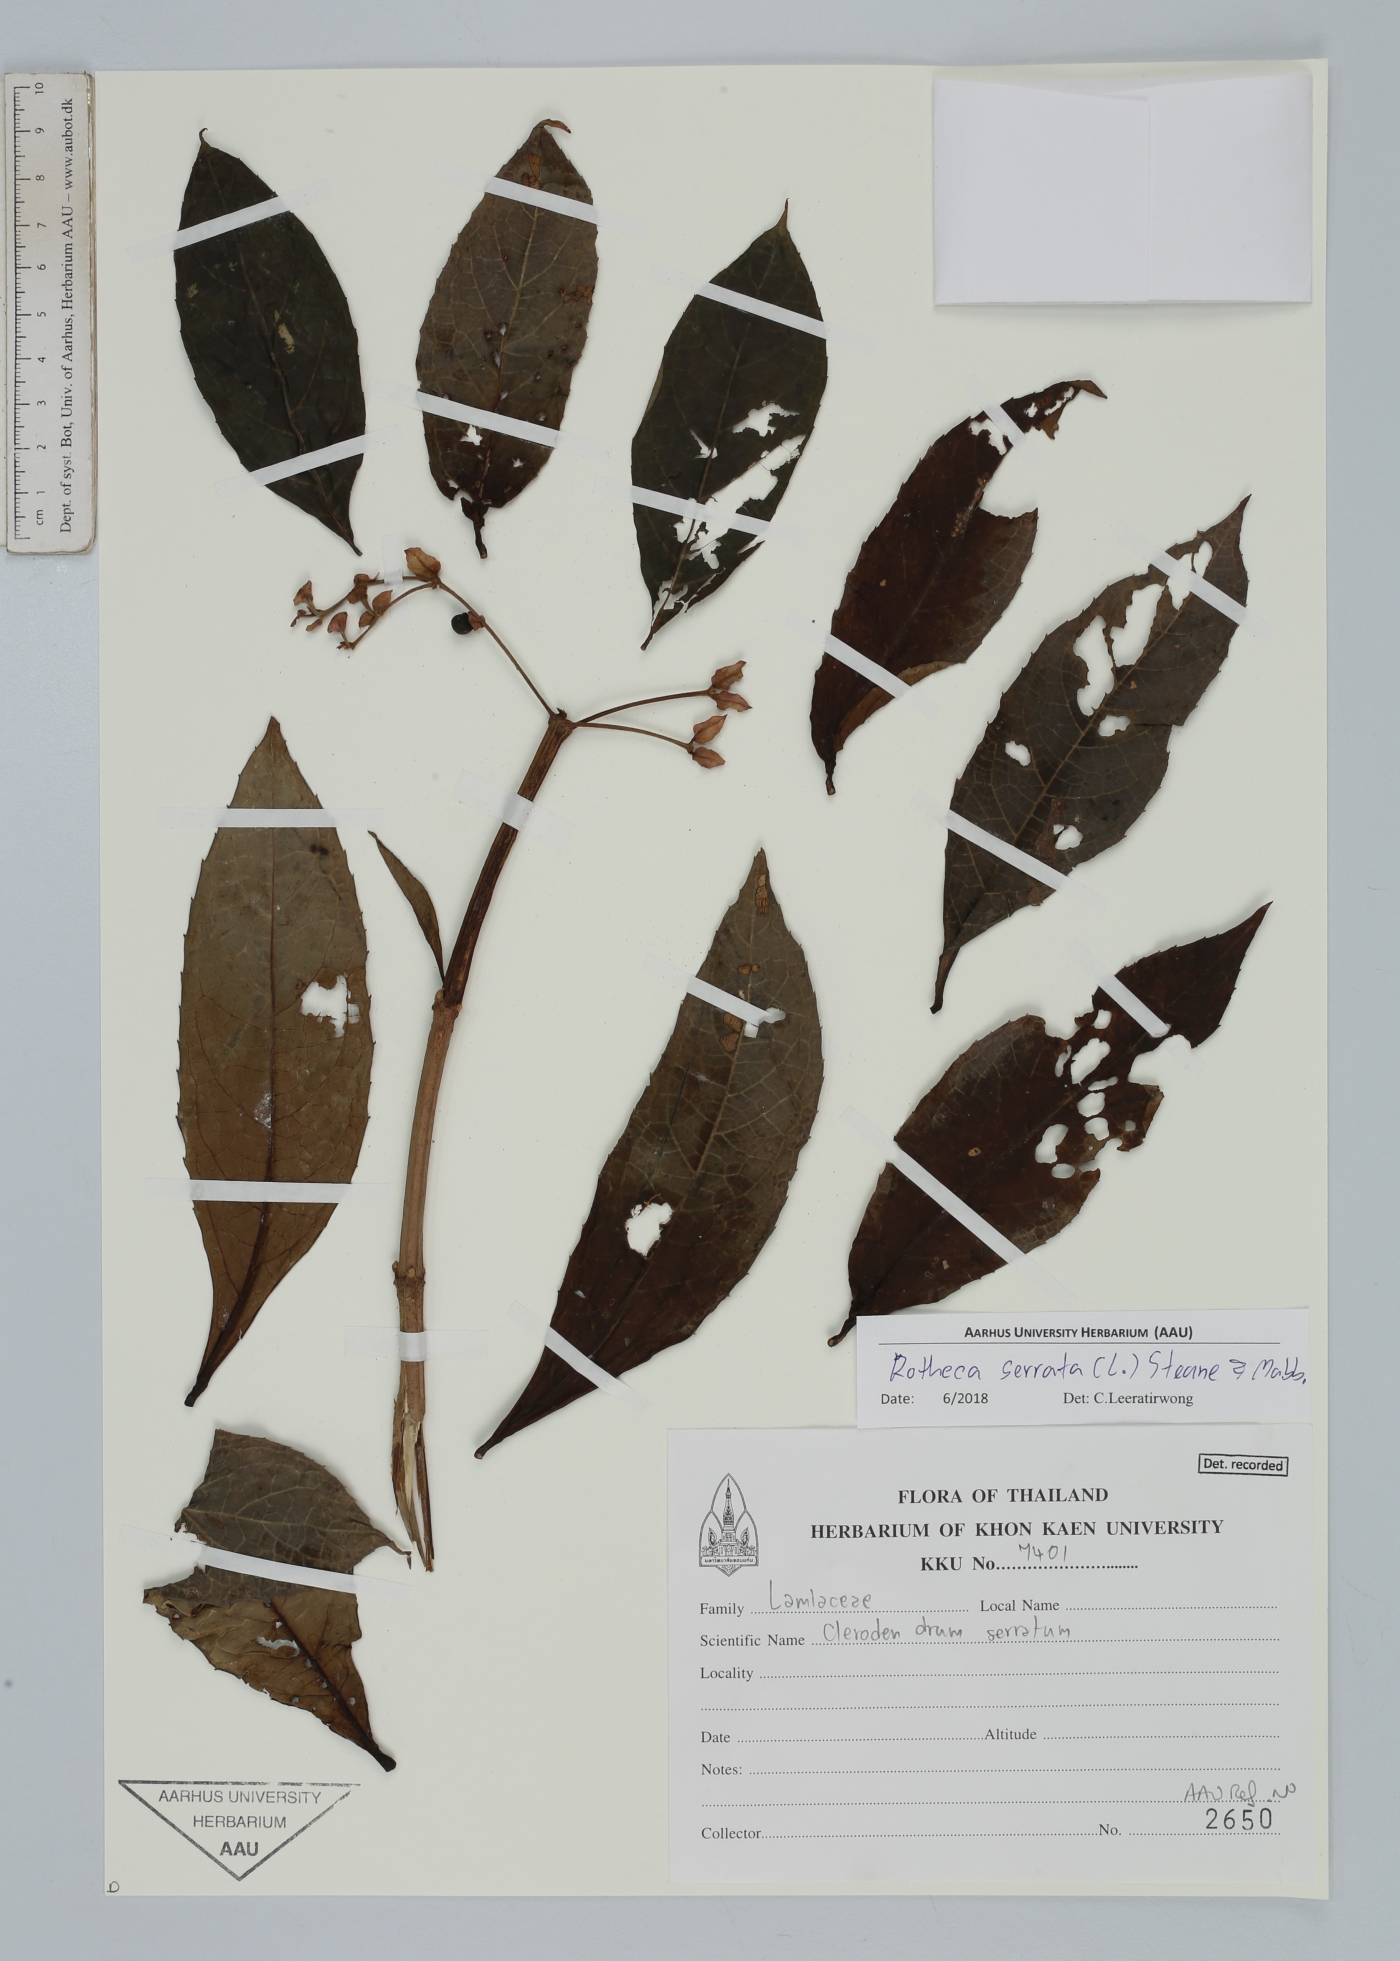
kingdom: Plantae
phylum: Tracheophyta
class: Magnoliopsida
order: Lamiales
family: Lamiaceae
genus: Rotheca
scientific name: Rotheca serrata
